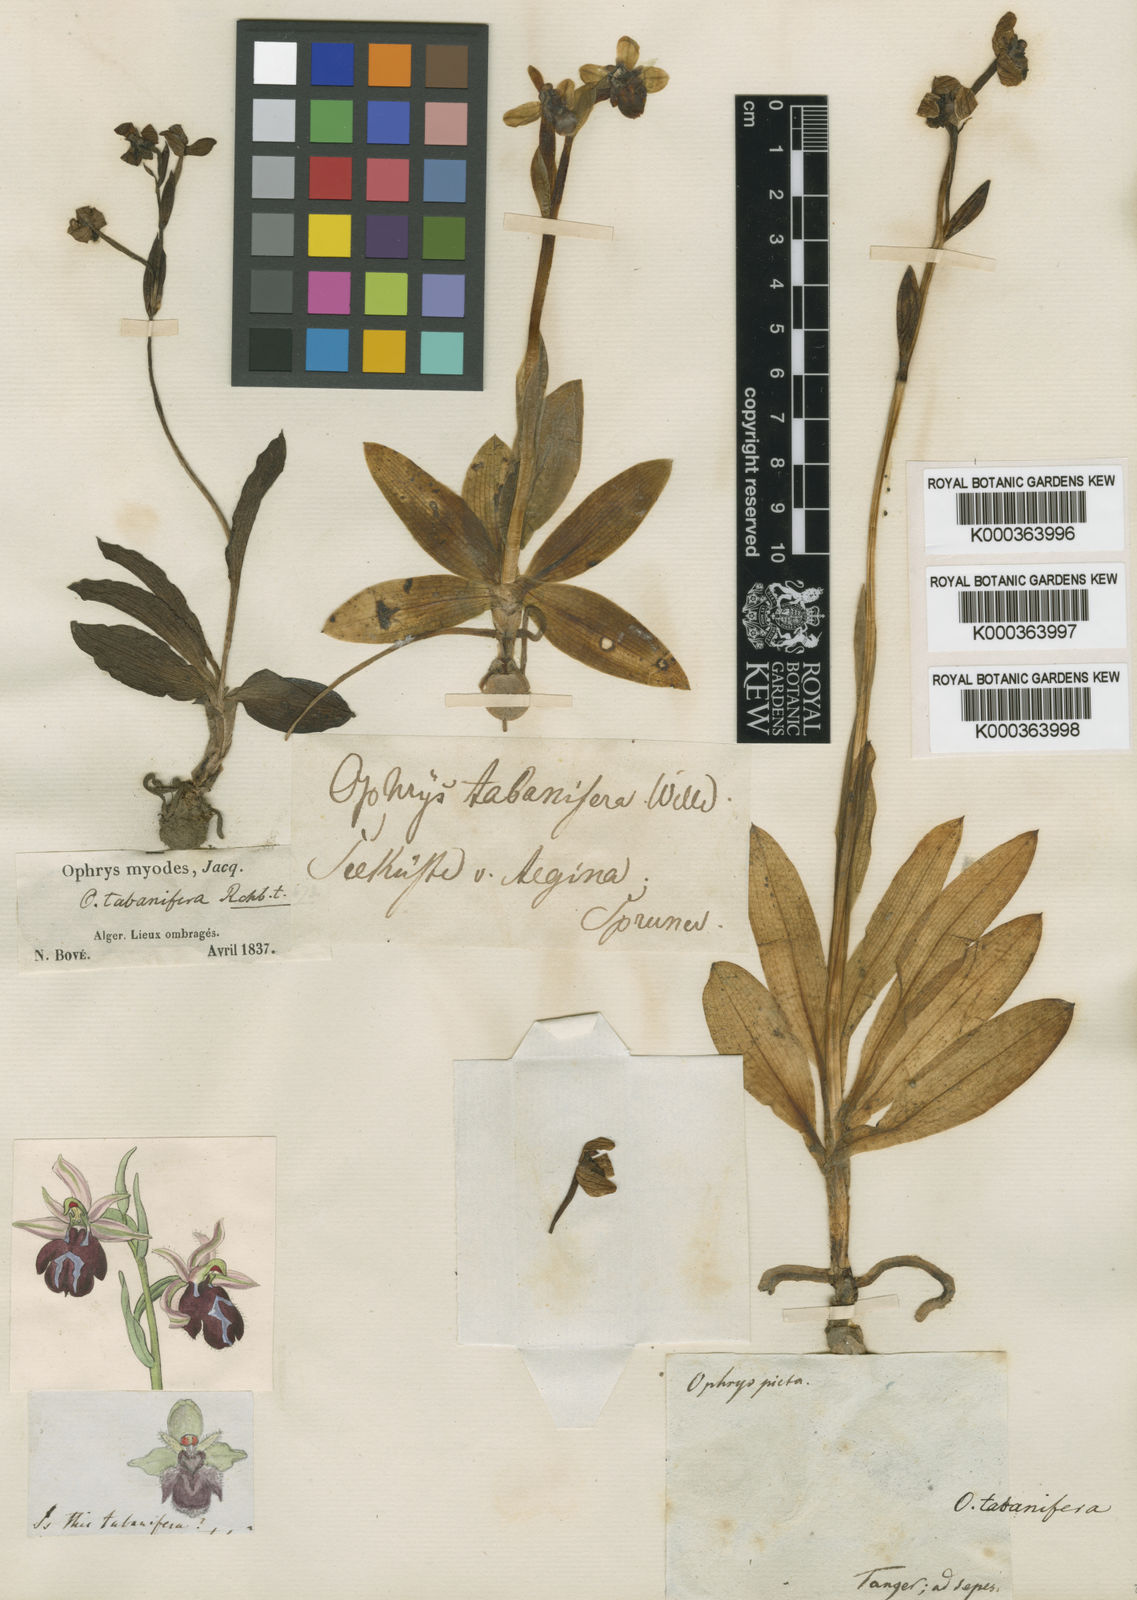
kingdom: Plantae
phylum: Tracheophyta
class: Liliopsida
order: Asparagales
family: Orchidaceae
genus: Ophrys
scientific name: Ophrys bombyliflora
